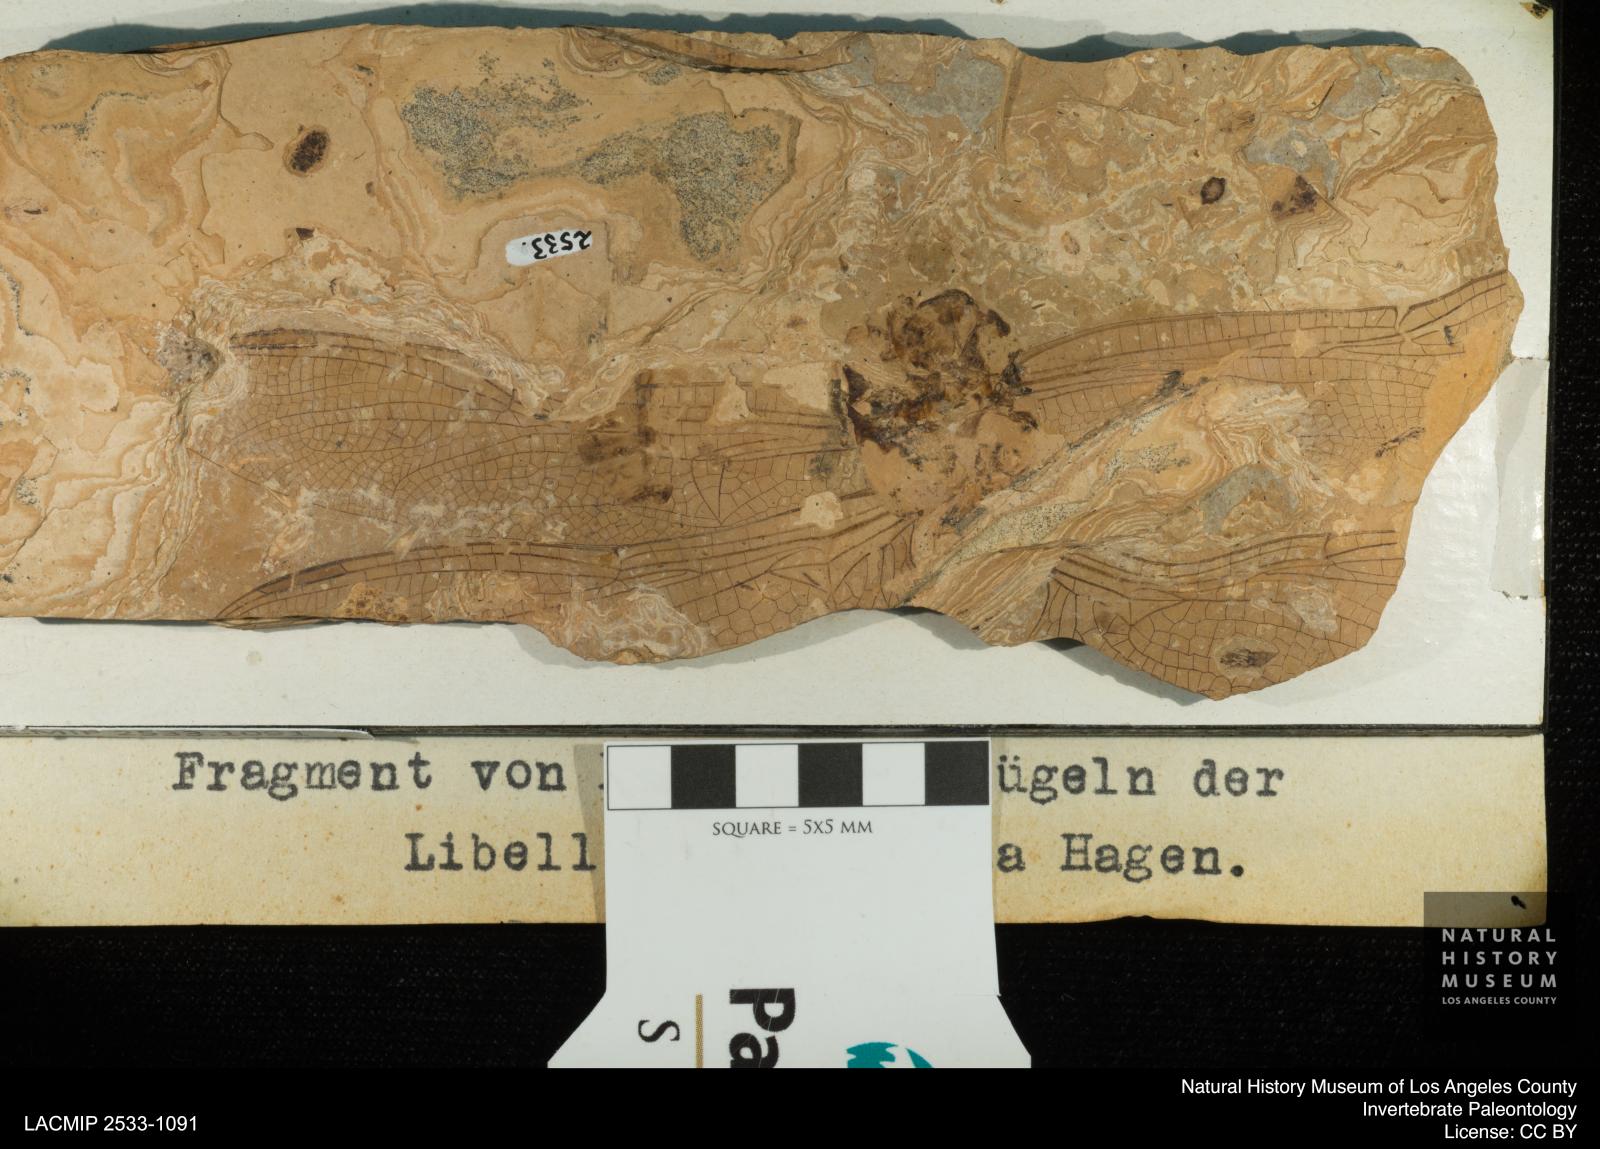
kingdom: Animalia
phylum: Arthropoda
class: Insecta
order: Odonata
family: Libellulidae
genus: Palaeotramea
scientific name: Palaeotramea Libellula cellulosa
